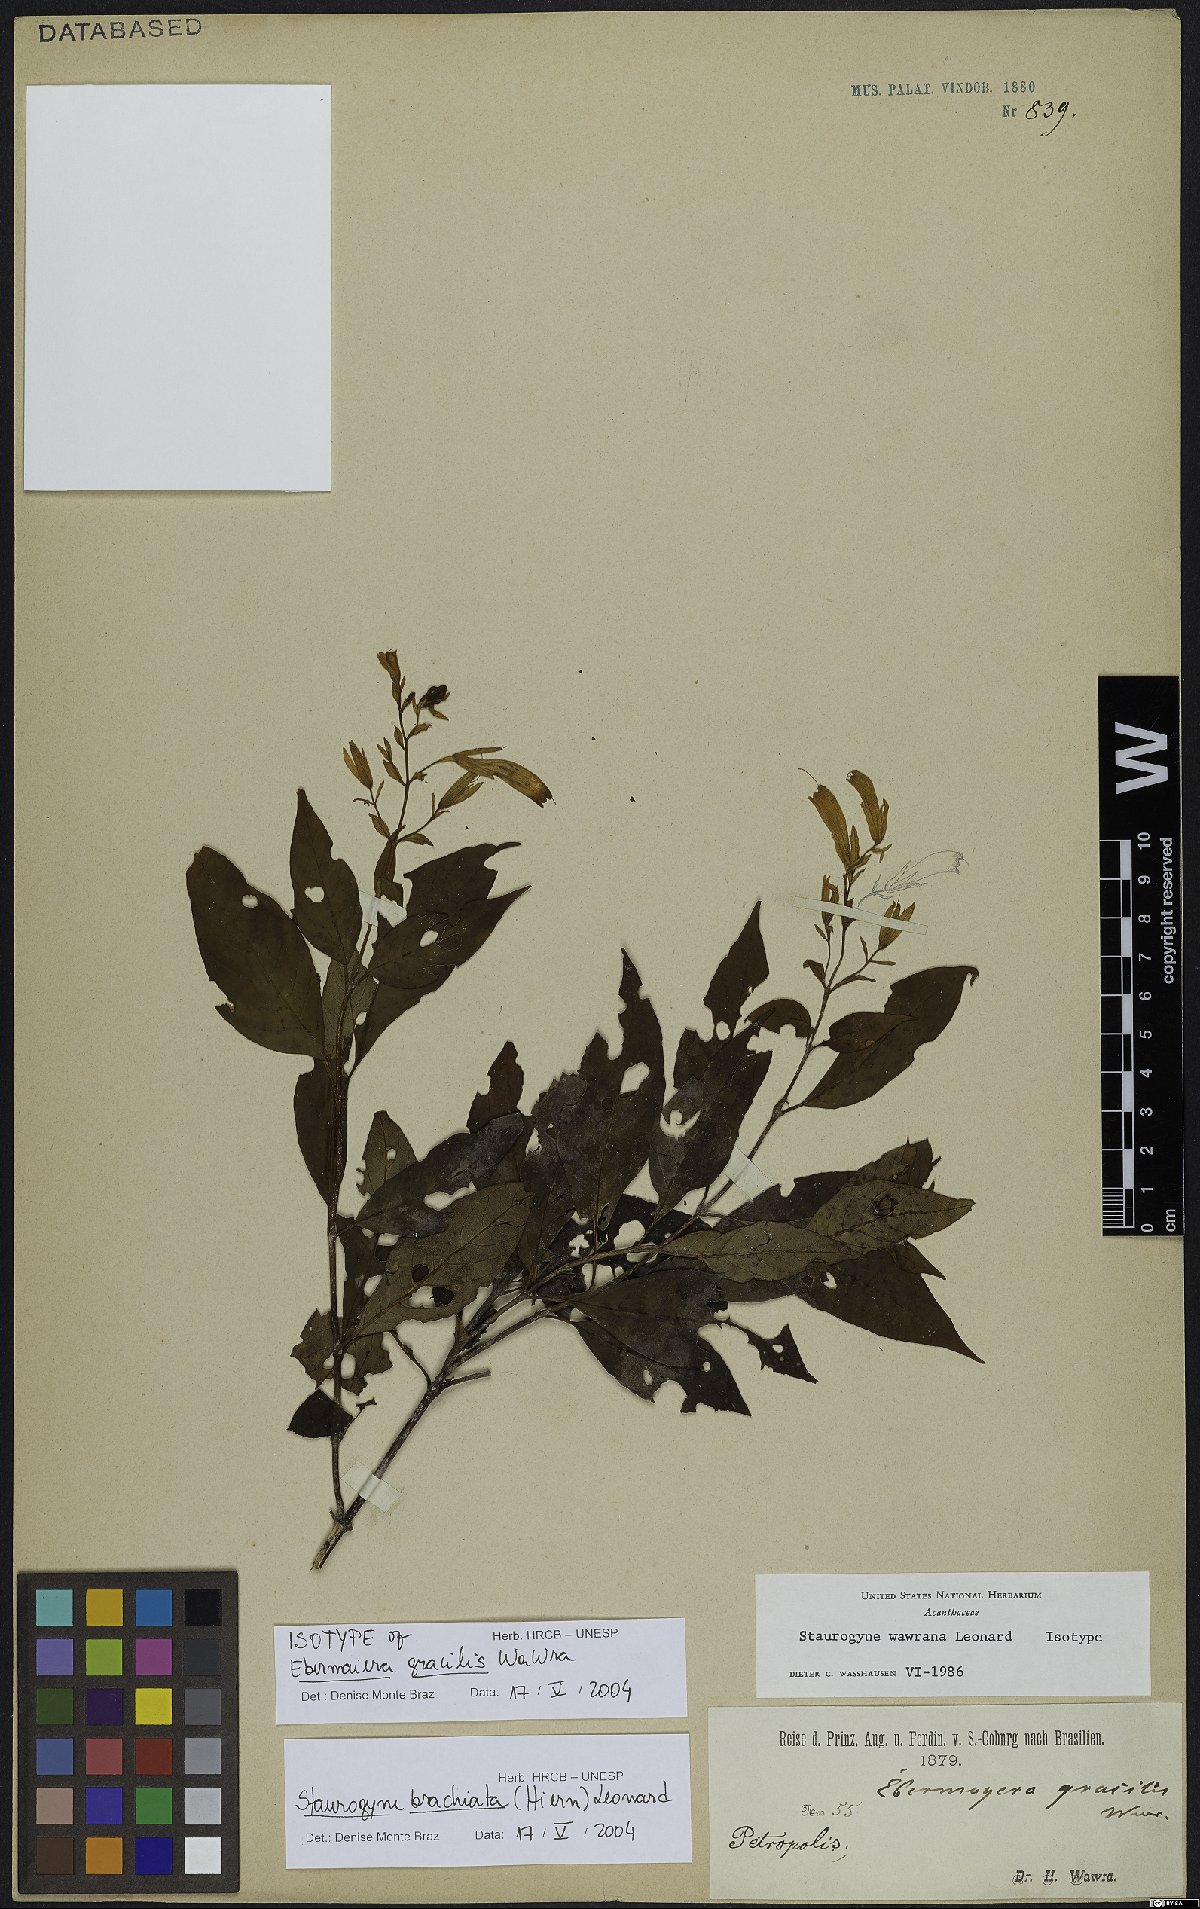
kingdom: Plantae
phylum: Tracheophyta
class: Magnoliopsida
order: Lamiales
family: Acanthaceae
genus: Staurogyne
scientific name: Staurogyne brachiata
